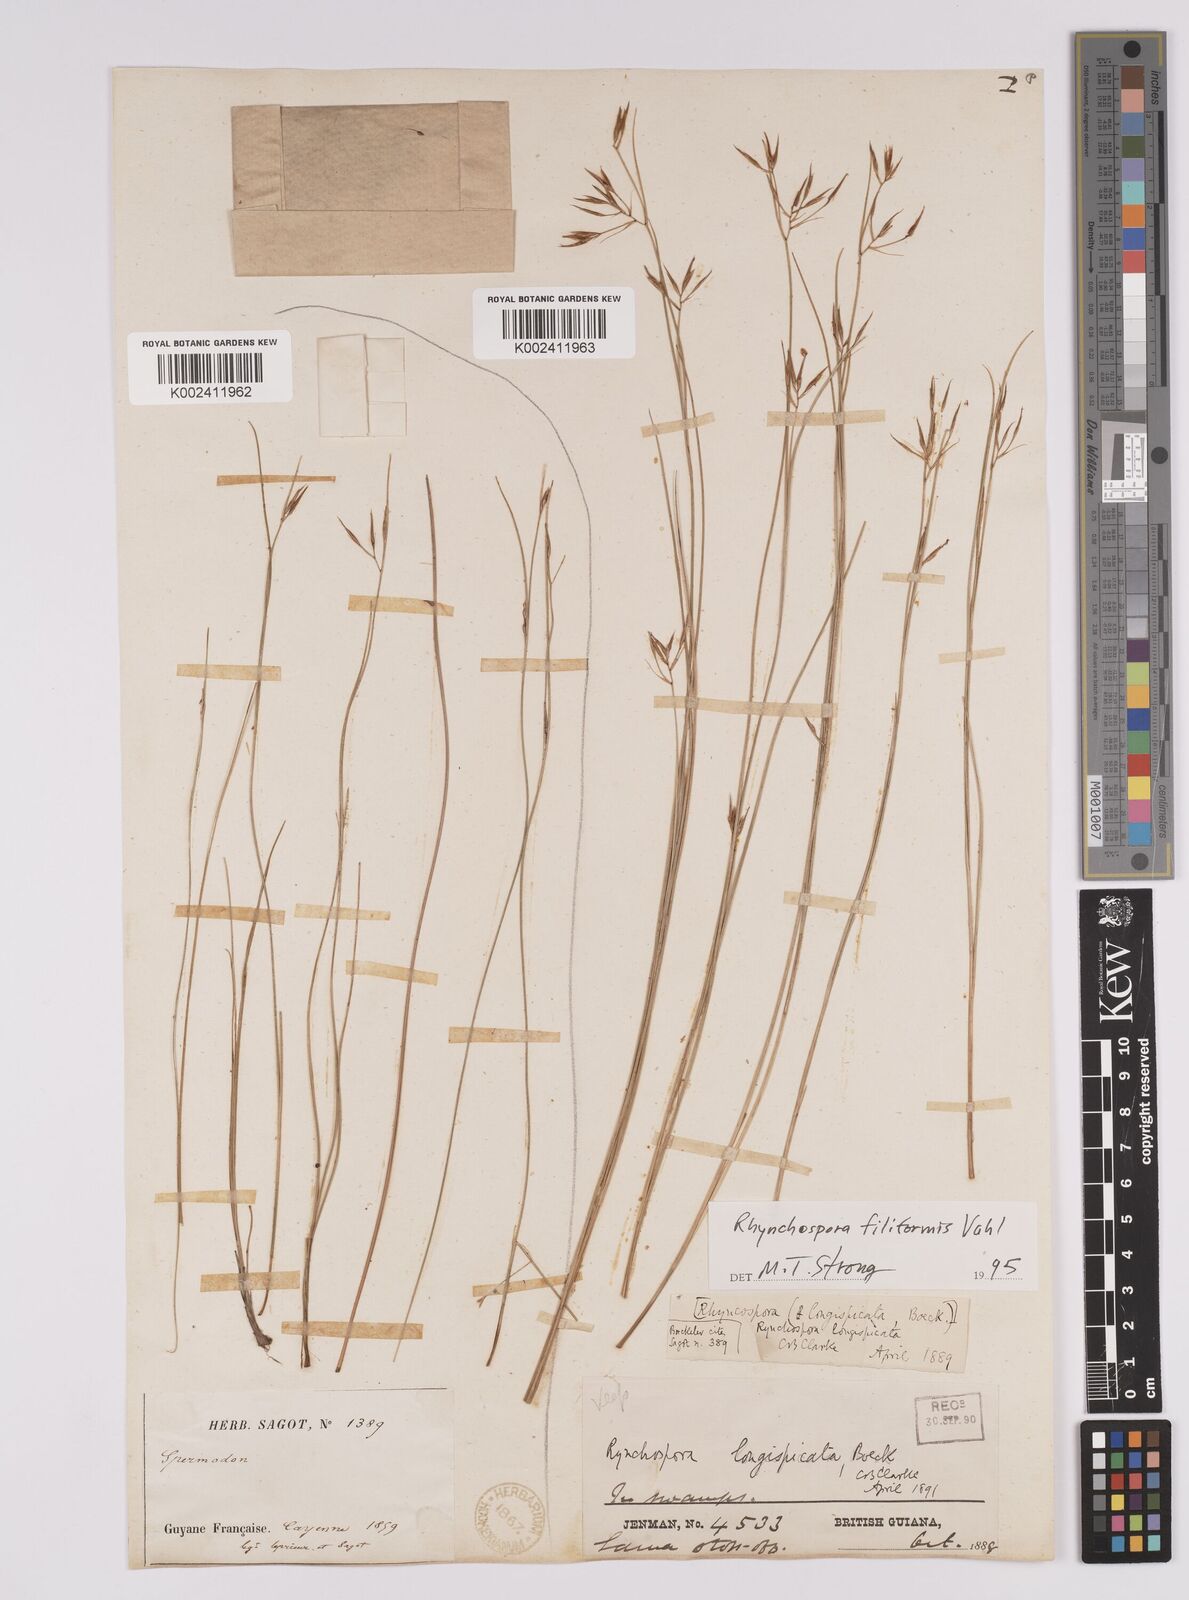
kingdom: Plantae
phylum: Tracheophyta
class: Liliopsida
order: Poales
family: Cyperaceae
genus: Rhynchospora
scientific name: Rhynchospora filiformis
